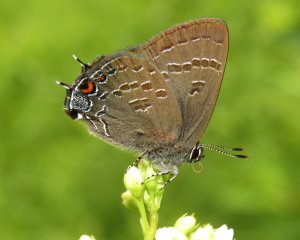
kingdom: Animalia
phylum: Arthropoda
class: Insecta
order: Lepidoptera
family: Lycaenidae
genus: Satyrium
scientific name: Satyrium calanus
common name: Banded Hairstreak
